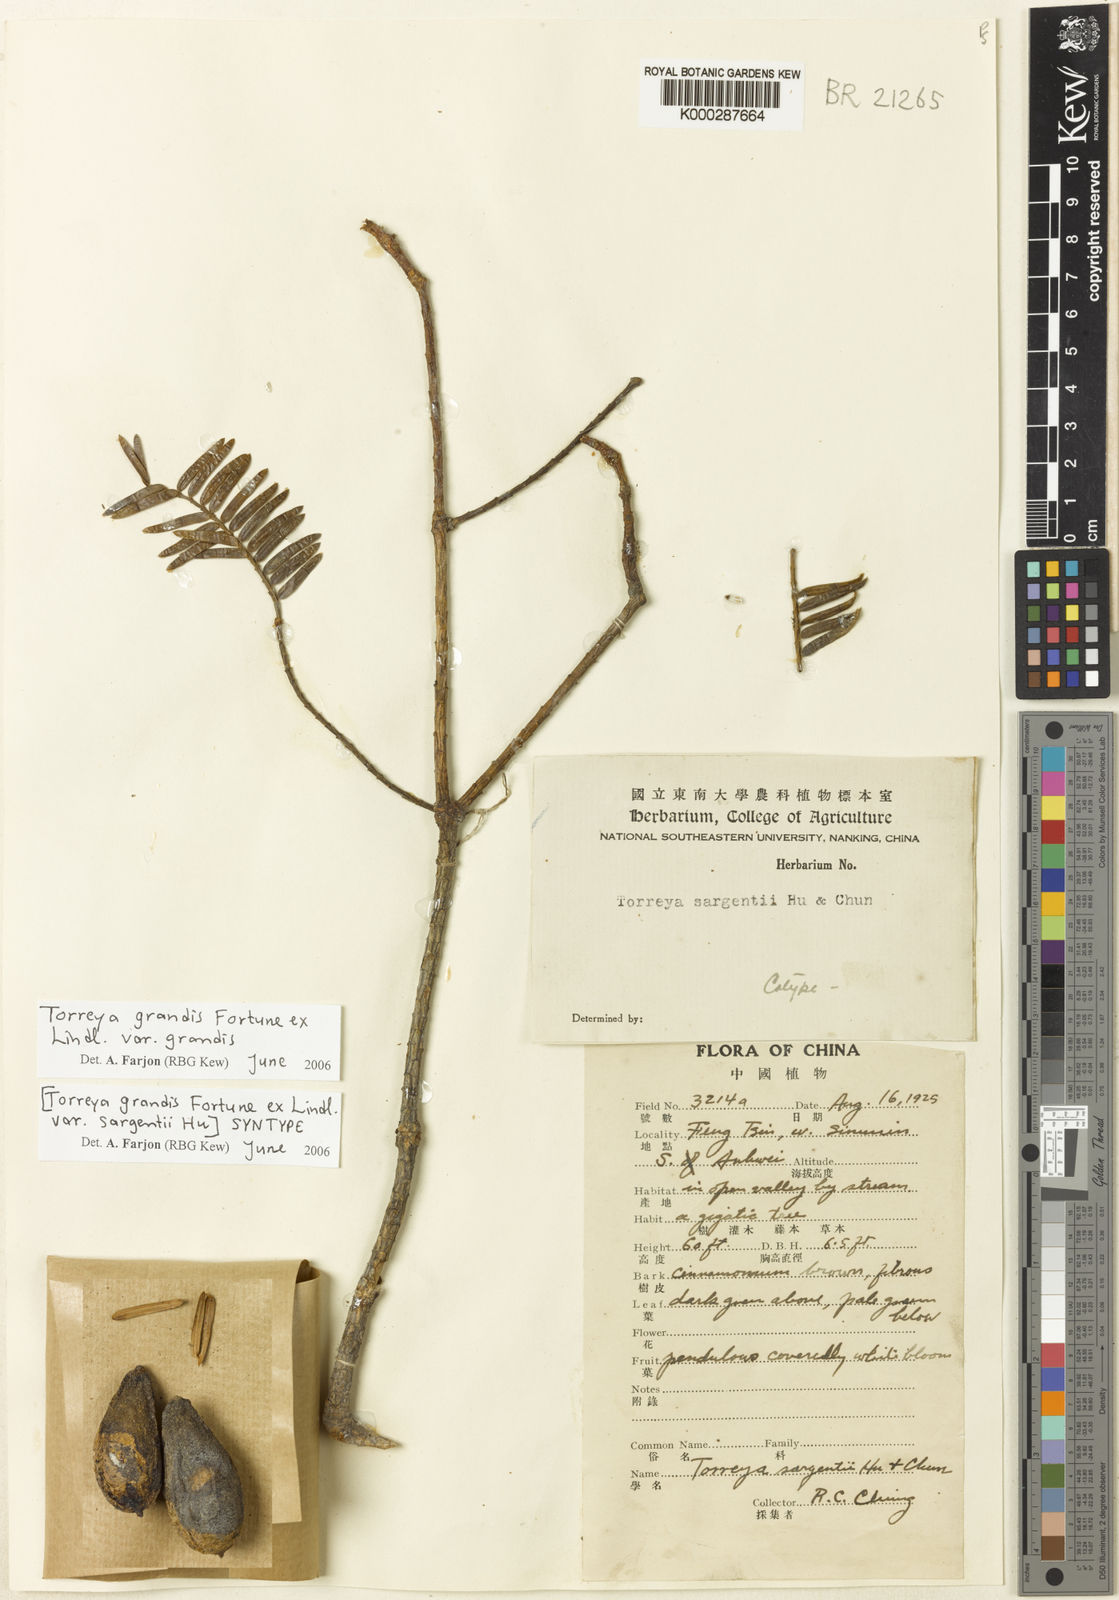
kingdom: Plantae
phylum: Tracheophyta
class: Pinopsida
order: Pinales
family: Taxaceae
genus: Torreya
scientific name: Torreya grandis
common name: Chinese nutmeg tree
